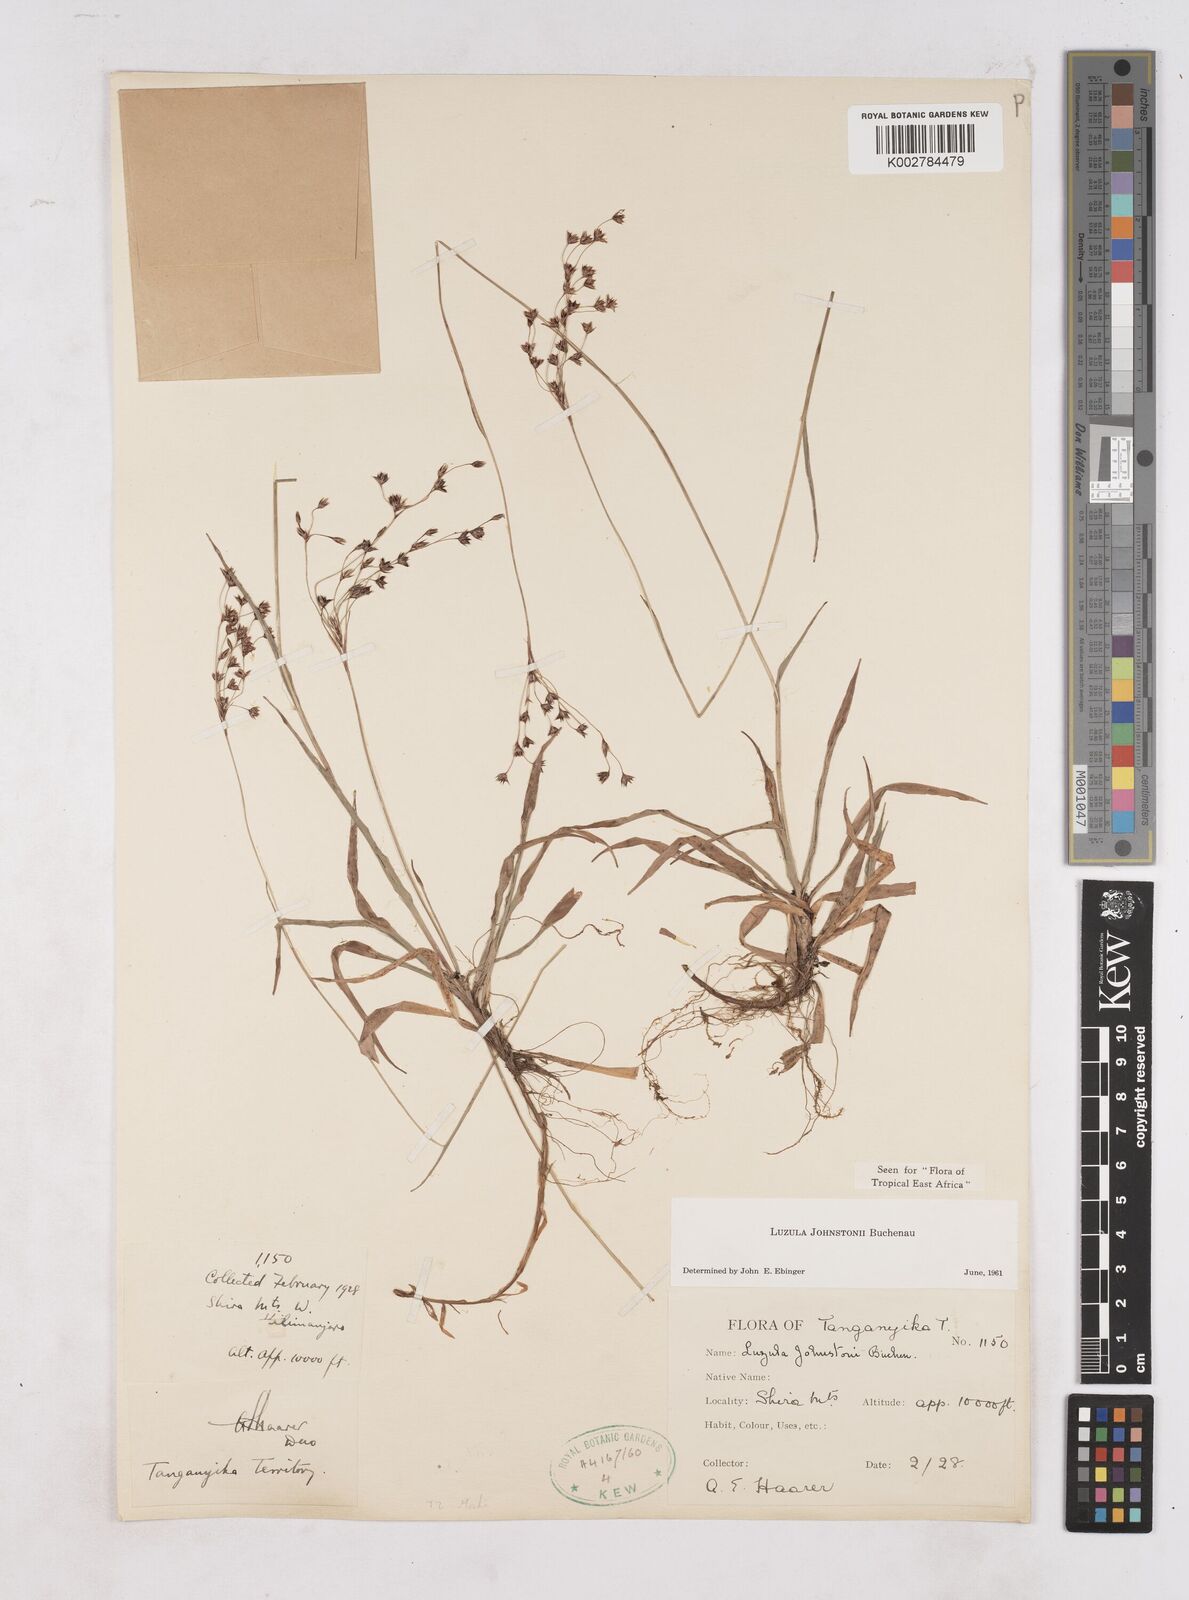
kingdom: Plantae
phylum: Tracheophyta
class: Liliopsida
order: Poales
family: Juncaceae
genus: Luzula
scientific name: Luzula johnstonii
